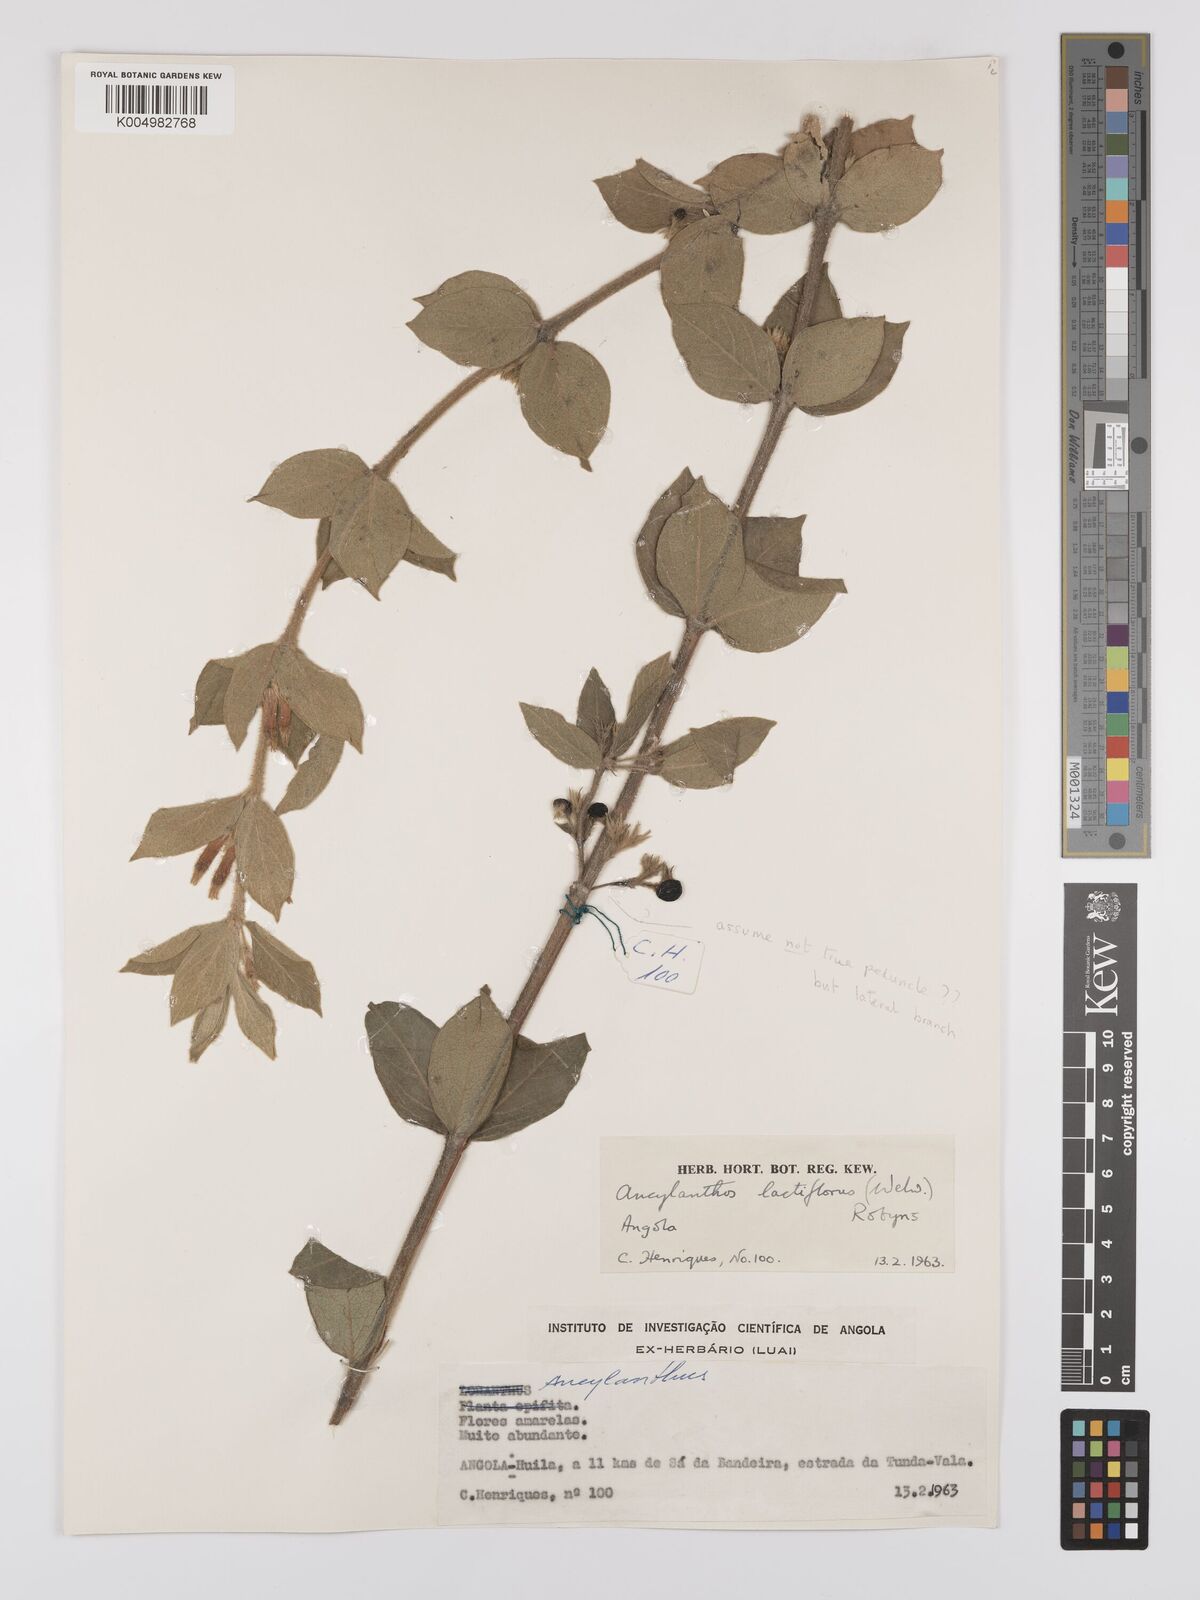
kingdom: Plantae
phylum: Tracheophyta
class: Magnoliopsida
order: Gentianales
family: Rubiaceae
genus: Fadogia
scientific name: Fadogia lactiflora
